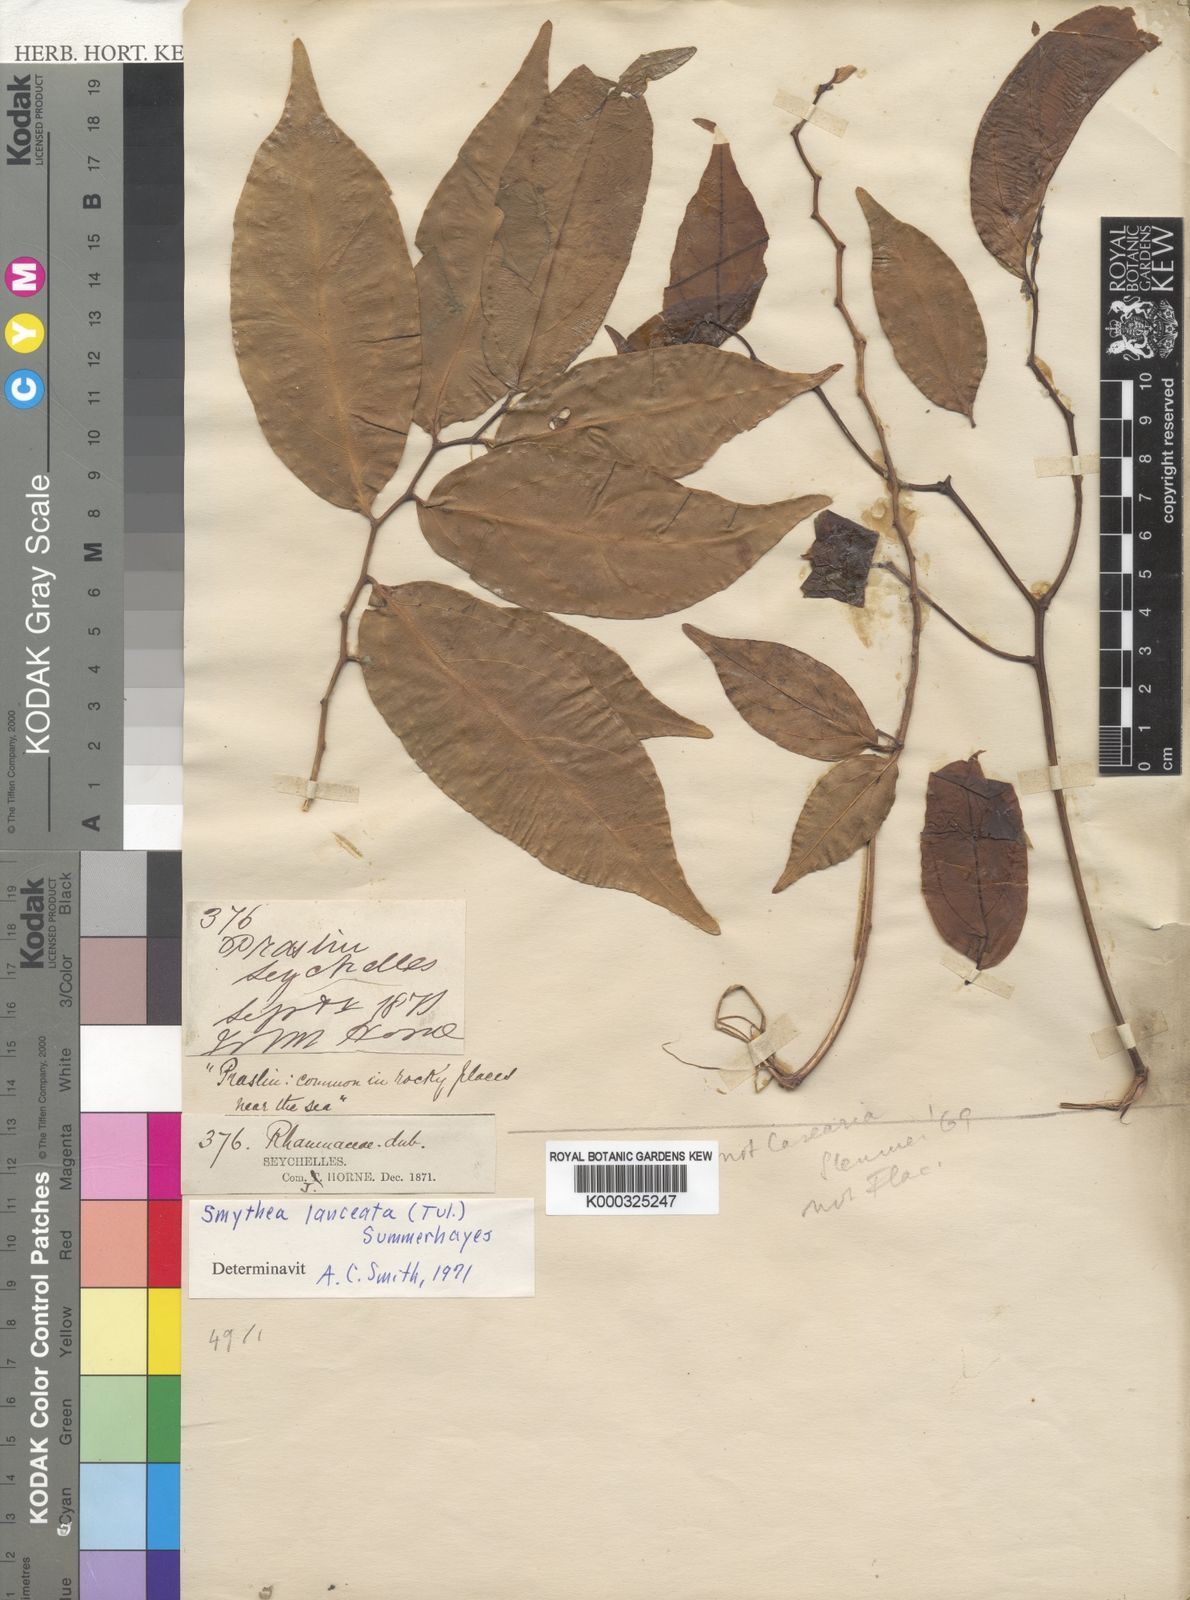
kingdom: Plantae
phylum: Tracheophyta
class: Magnoliopsida
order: Rosales
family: Rhamnaceae
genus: Smythea
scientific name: Smythea lanceata
